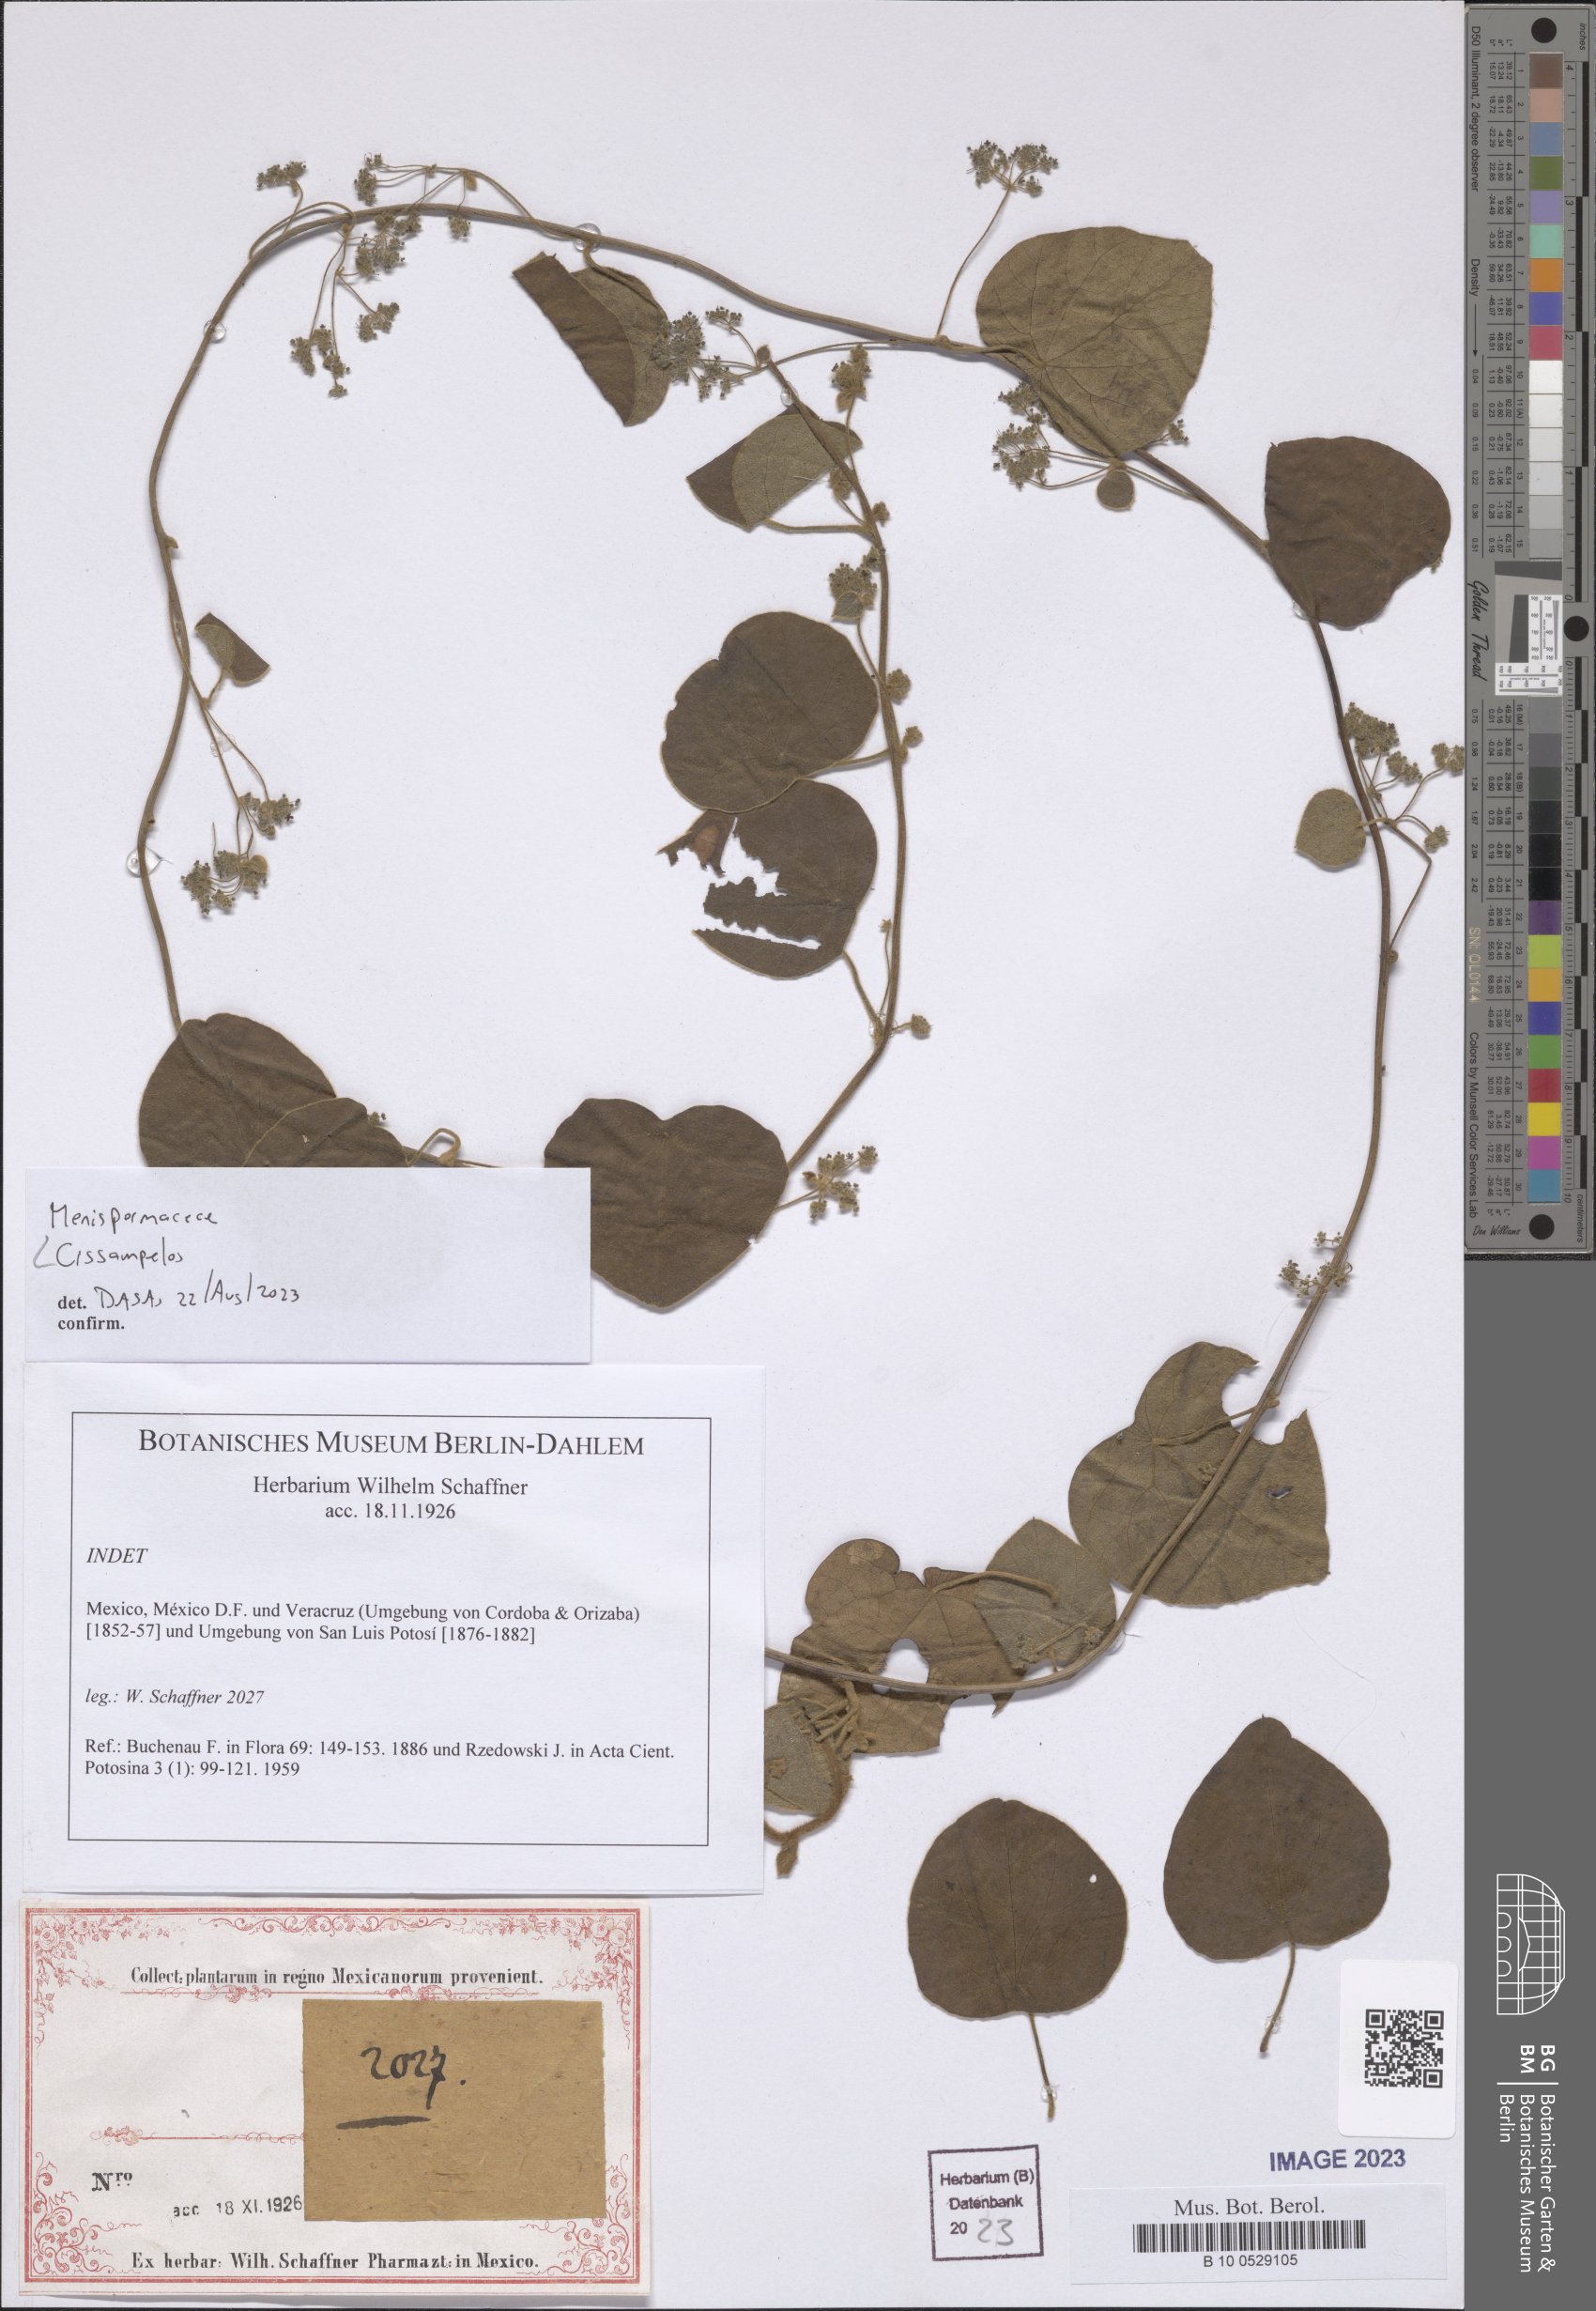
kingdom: Plantae
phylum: Tracheophyta
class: Magnoliopsida
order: Ranunculales
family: Menispermaceae
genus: Cissampelos
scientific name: Cissampelos
